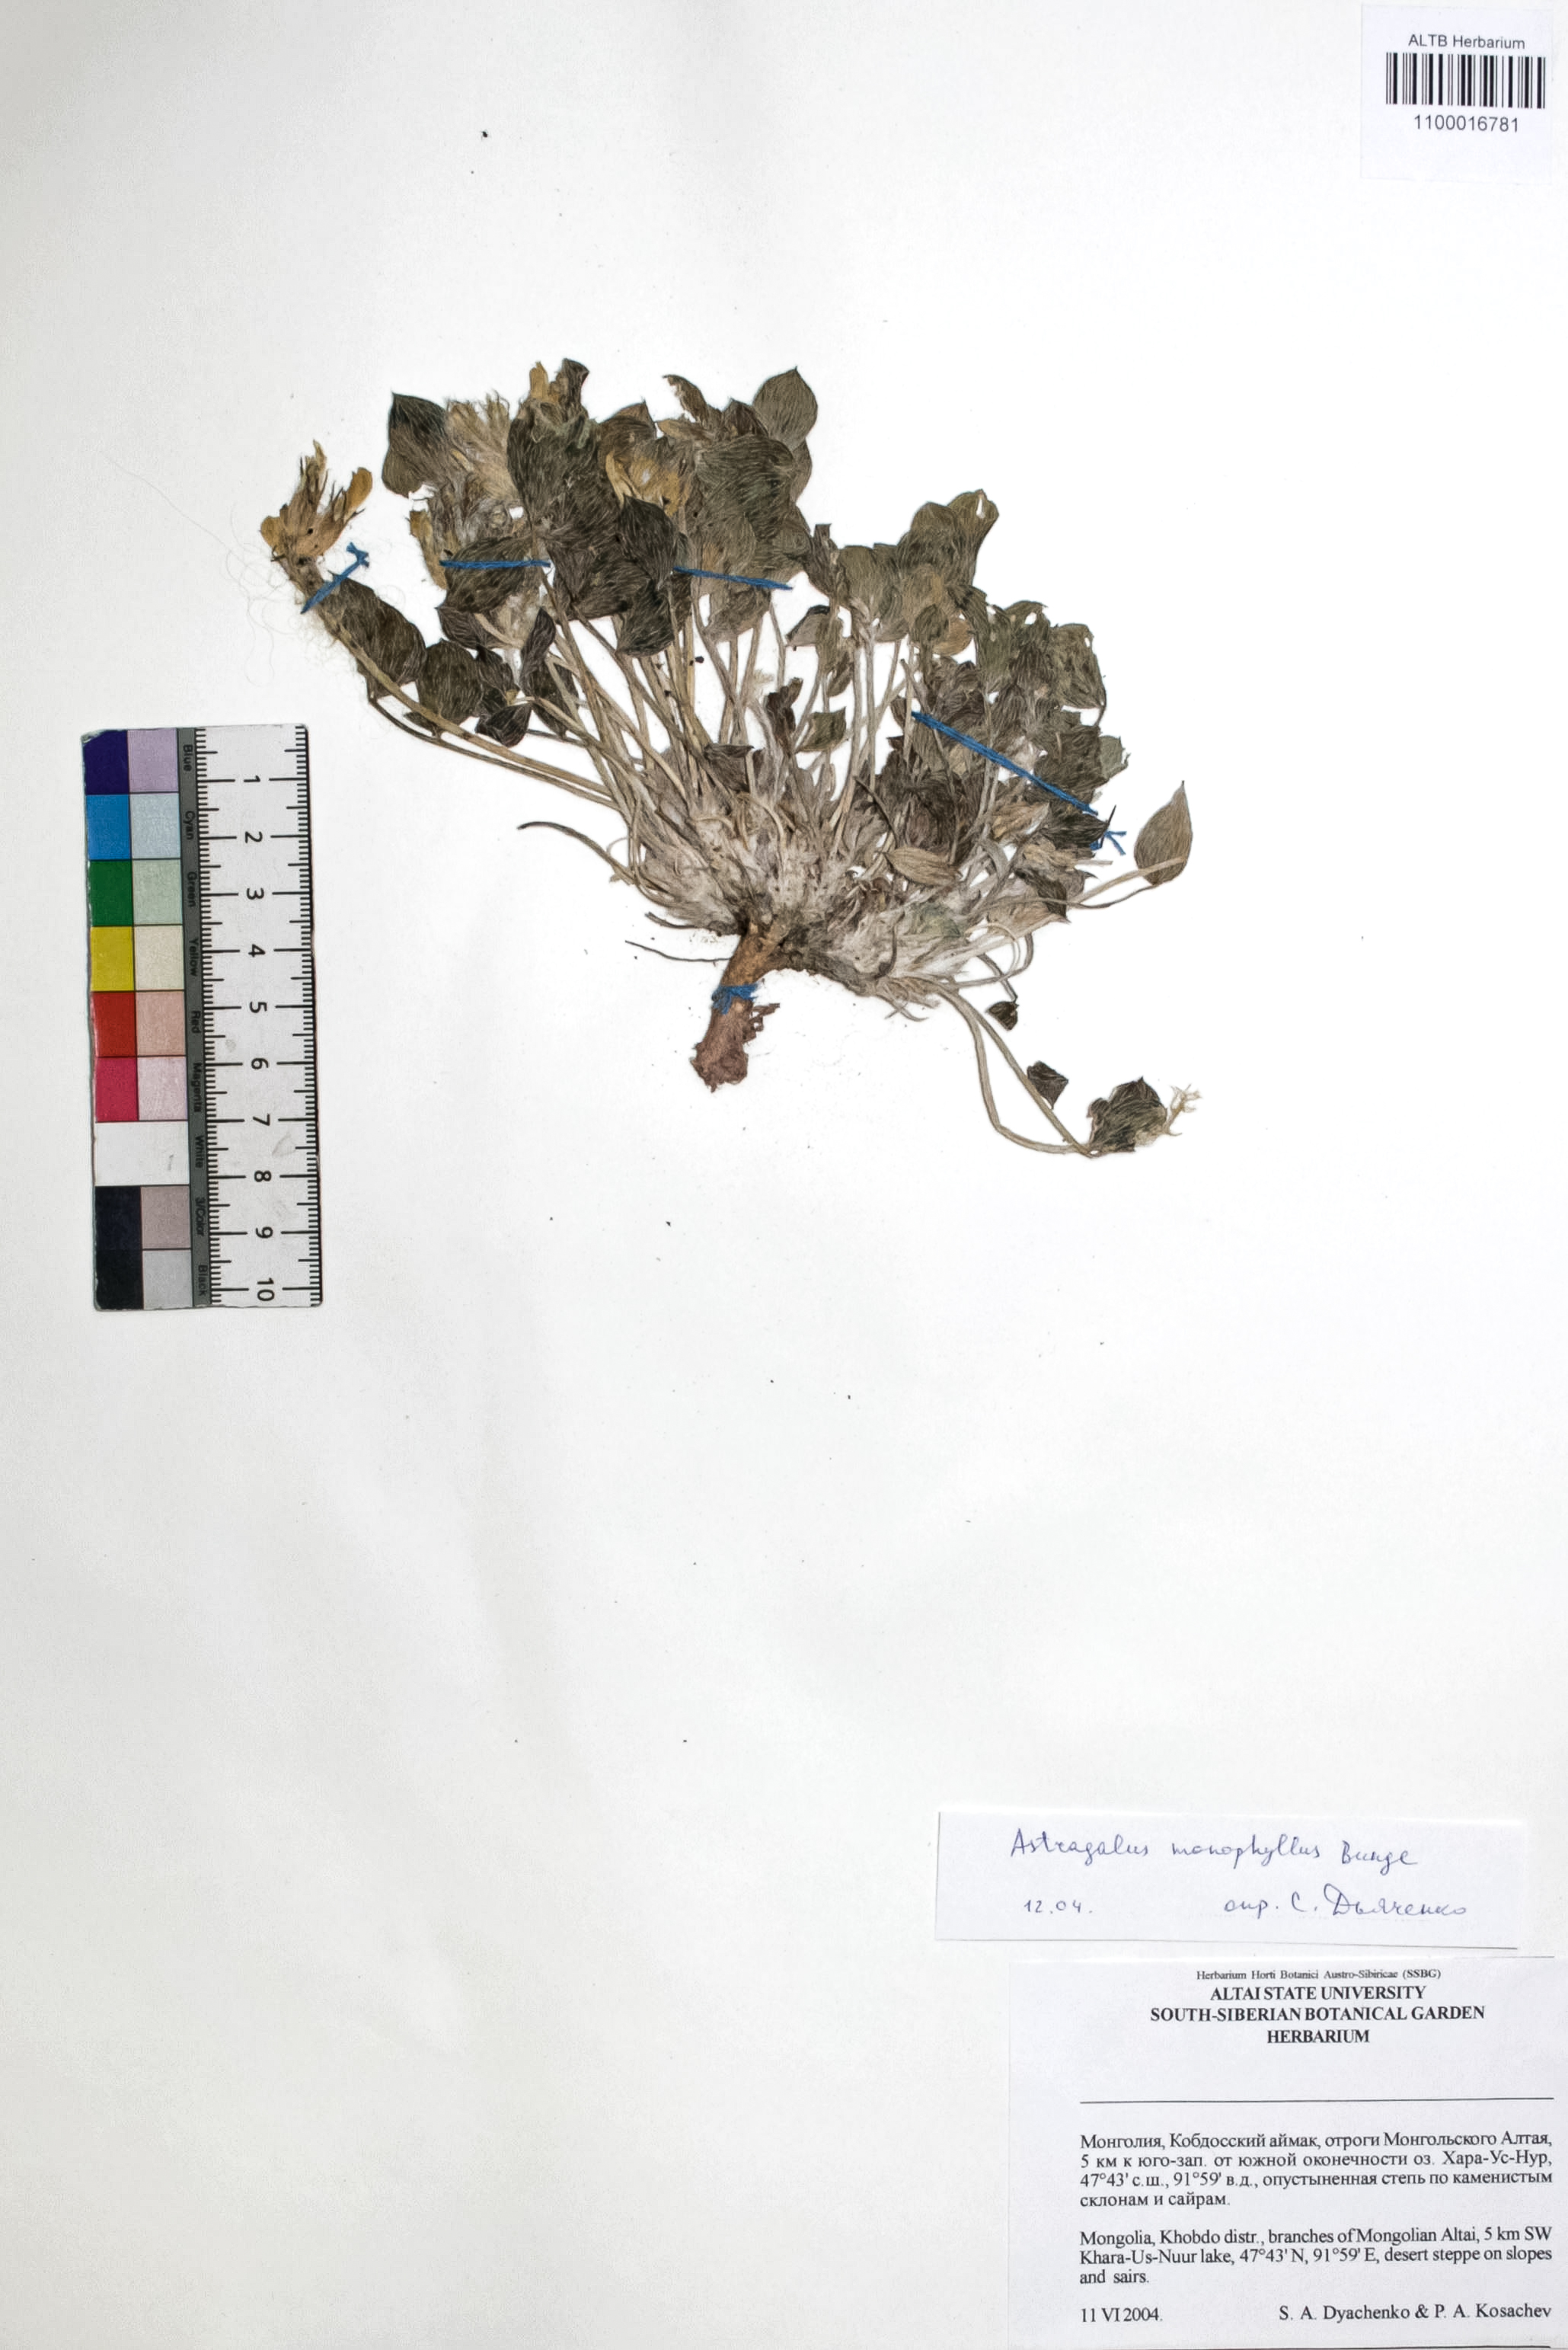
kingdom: Plantae
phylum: Tracheophyta
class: Magnoliopsida
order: Fabales
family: Fabaceae
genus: Astragalus
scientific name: Astragalus monophyllus
